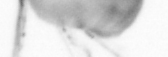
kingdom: Animalia
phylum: Annelida
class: Polychaeta
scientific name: Polychaeta
